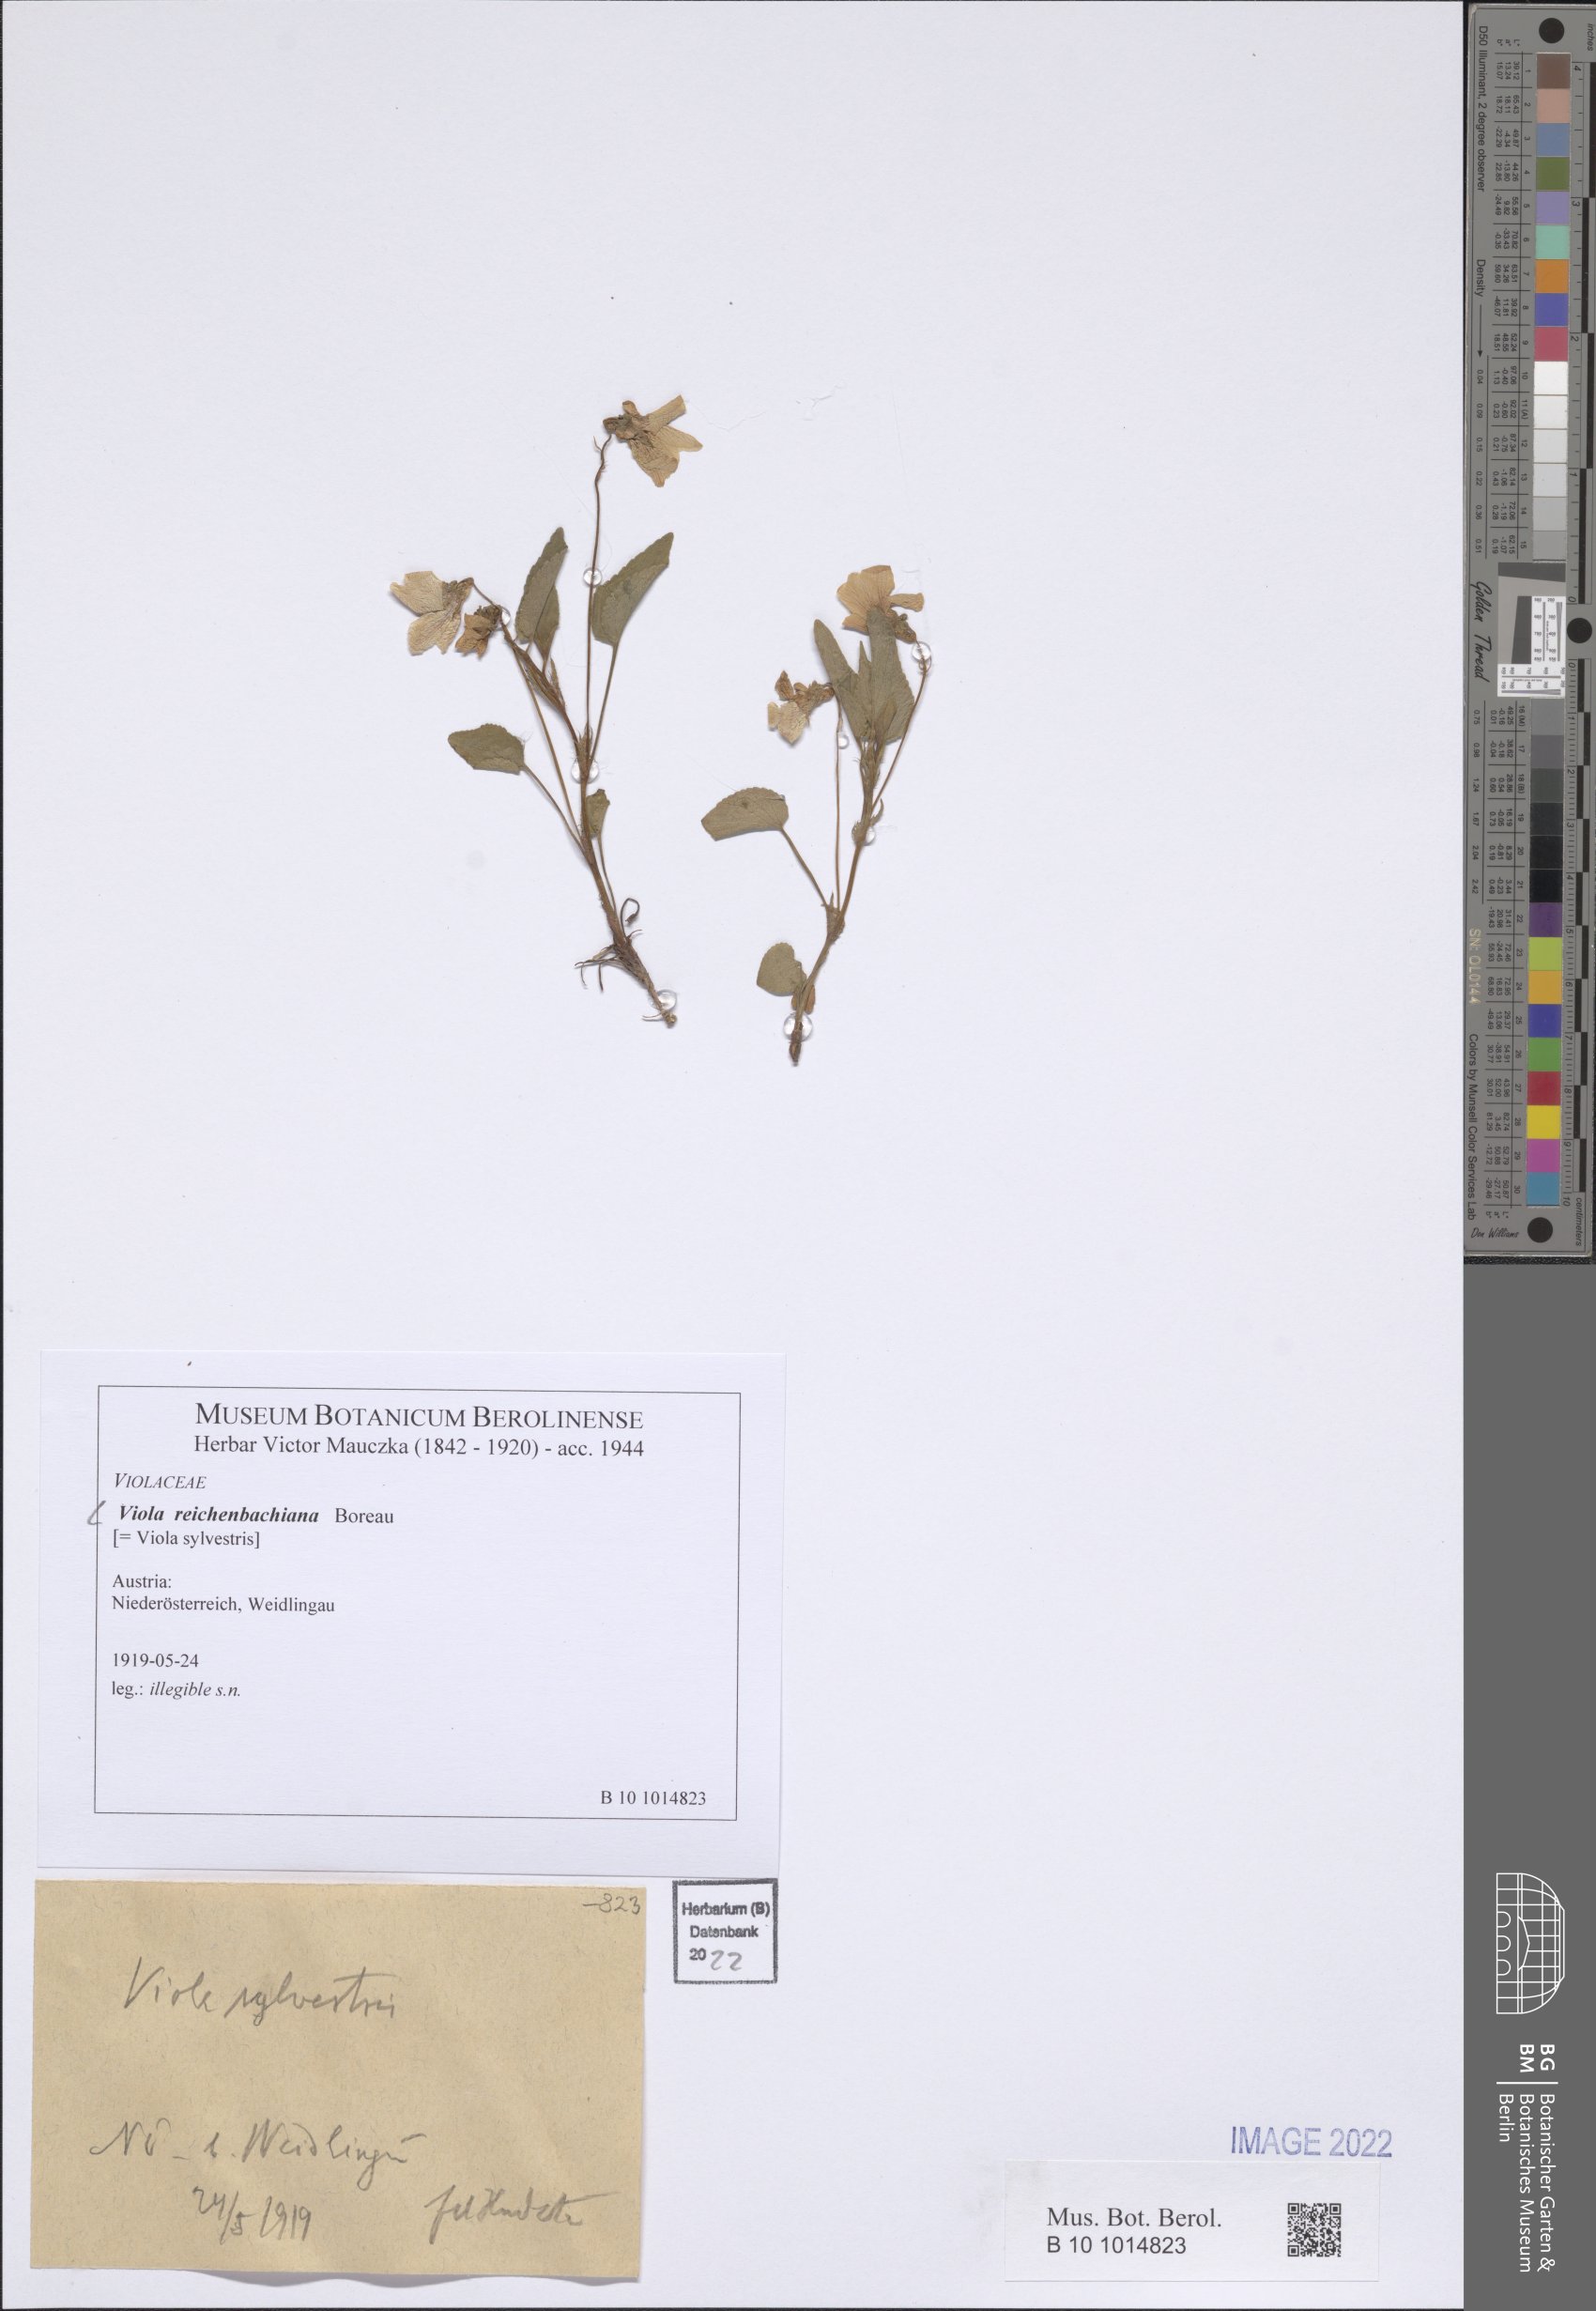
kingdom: Plantae
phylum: Tracheophyta
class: Magnoliopsida
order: Malpighiales
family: Violaceae
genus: Viola
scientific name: Viola reichenbachiana
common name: Early dog-violet
